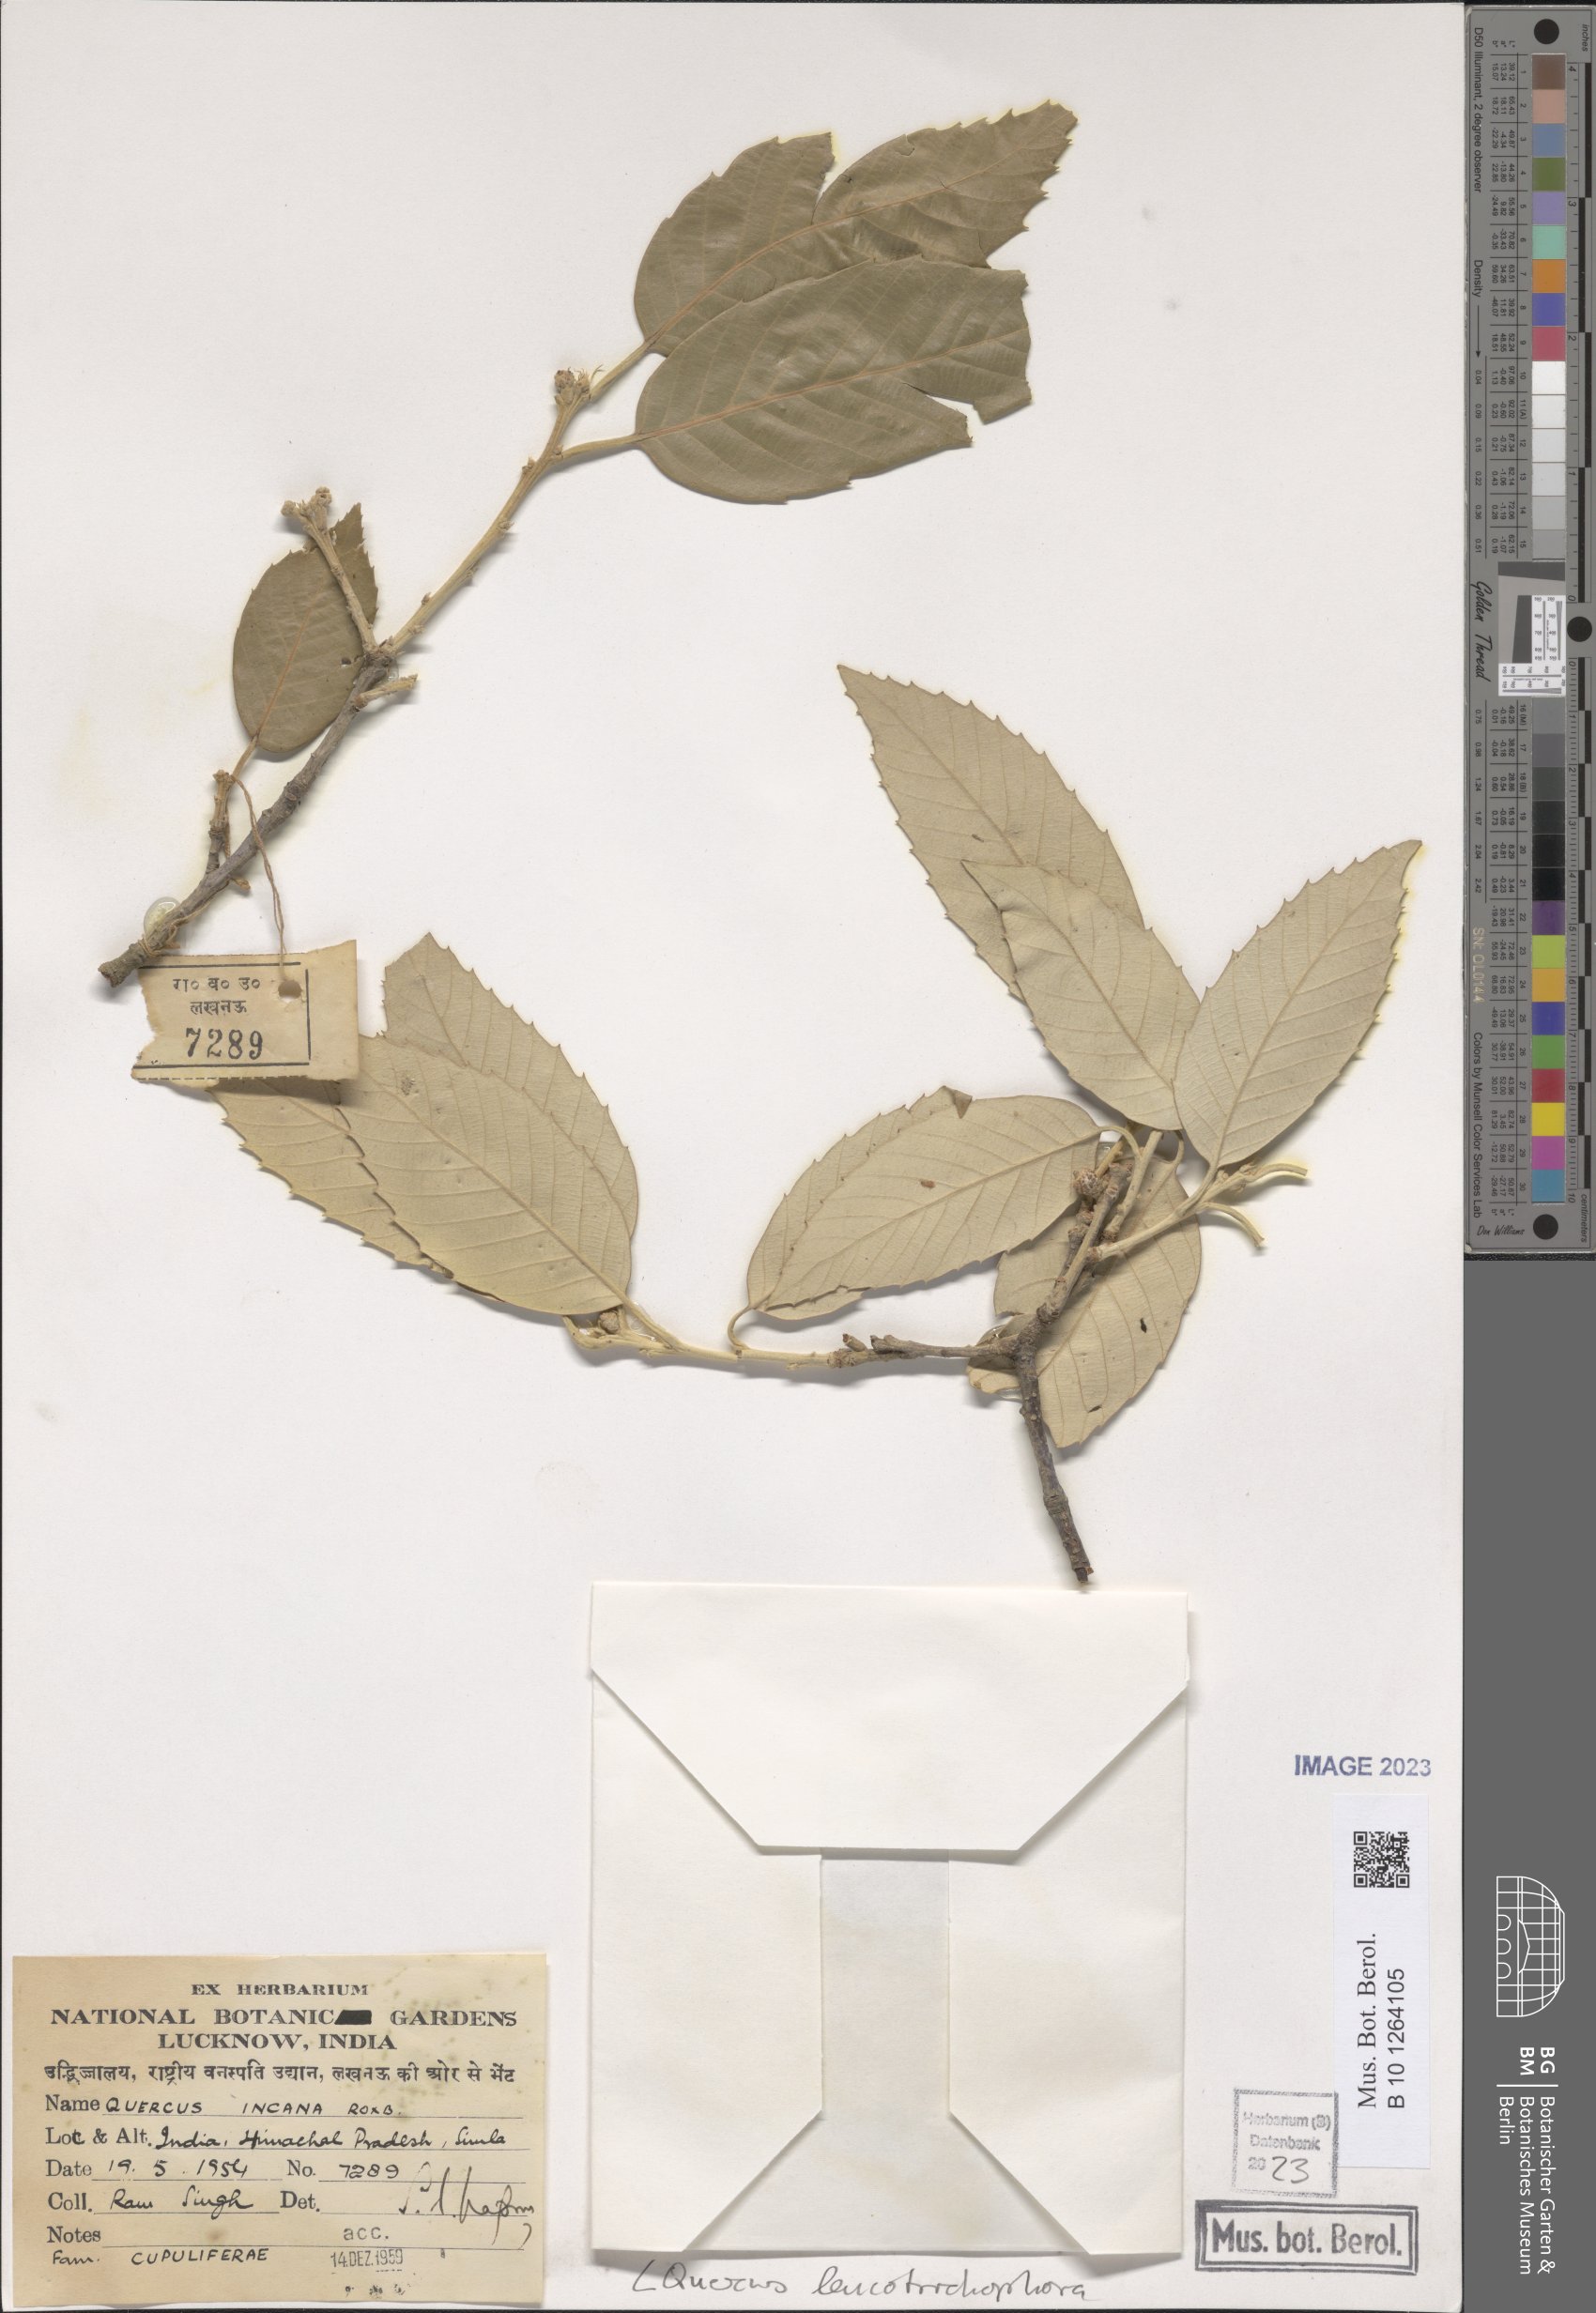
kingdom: Plantae
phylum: Tracheophyta
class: Magnoliopsida
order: Fagales
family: Fagaceae
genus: Quercus
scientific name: Quercus leucotrichophora
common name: Banj oak
